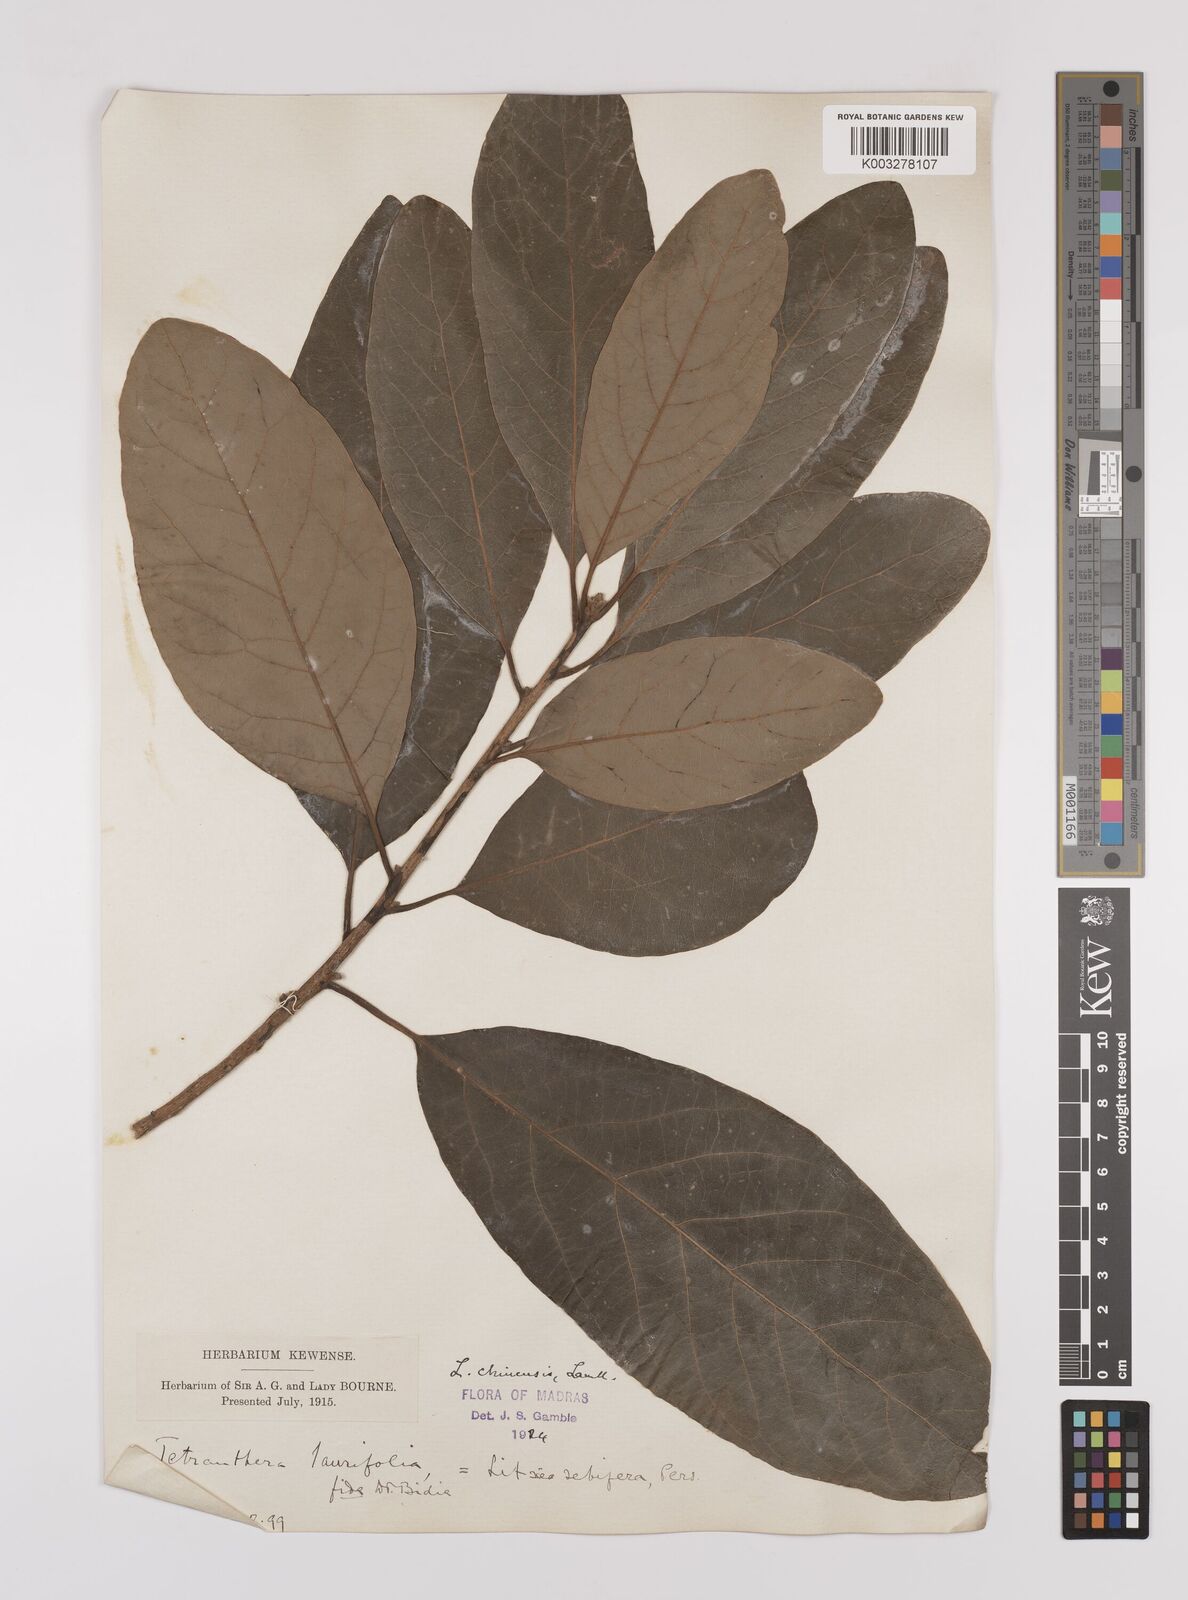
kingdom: Plantae
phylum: Tracheophyta
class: Magnoliopsida
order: Laurales
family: Lauraceae
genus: Litsea
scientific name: Litsea
